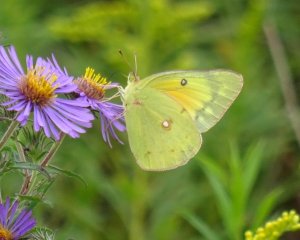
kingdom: Animalia
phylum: Arthropoda
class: Insecta
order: Lepidoptera
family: Pieridae
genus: Colias
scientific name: Colias eurytheme
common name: Orange Sulphur
